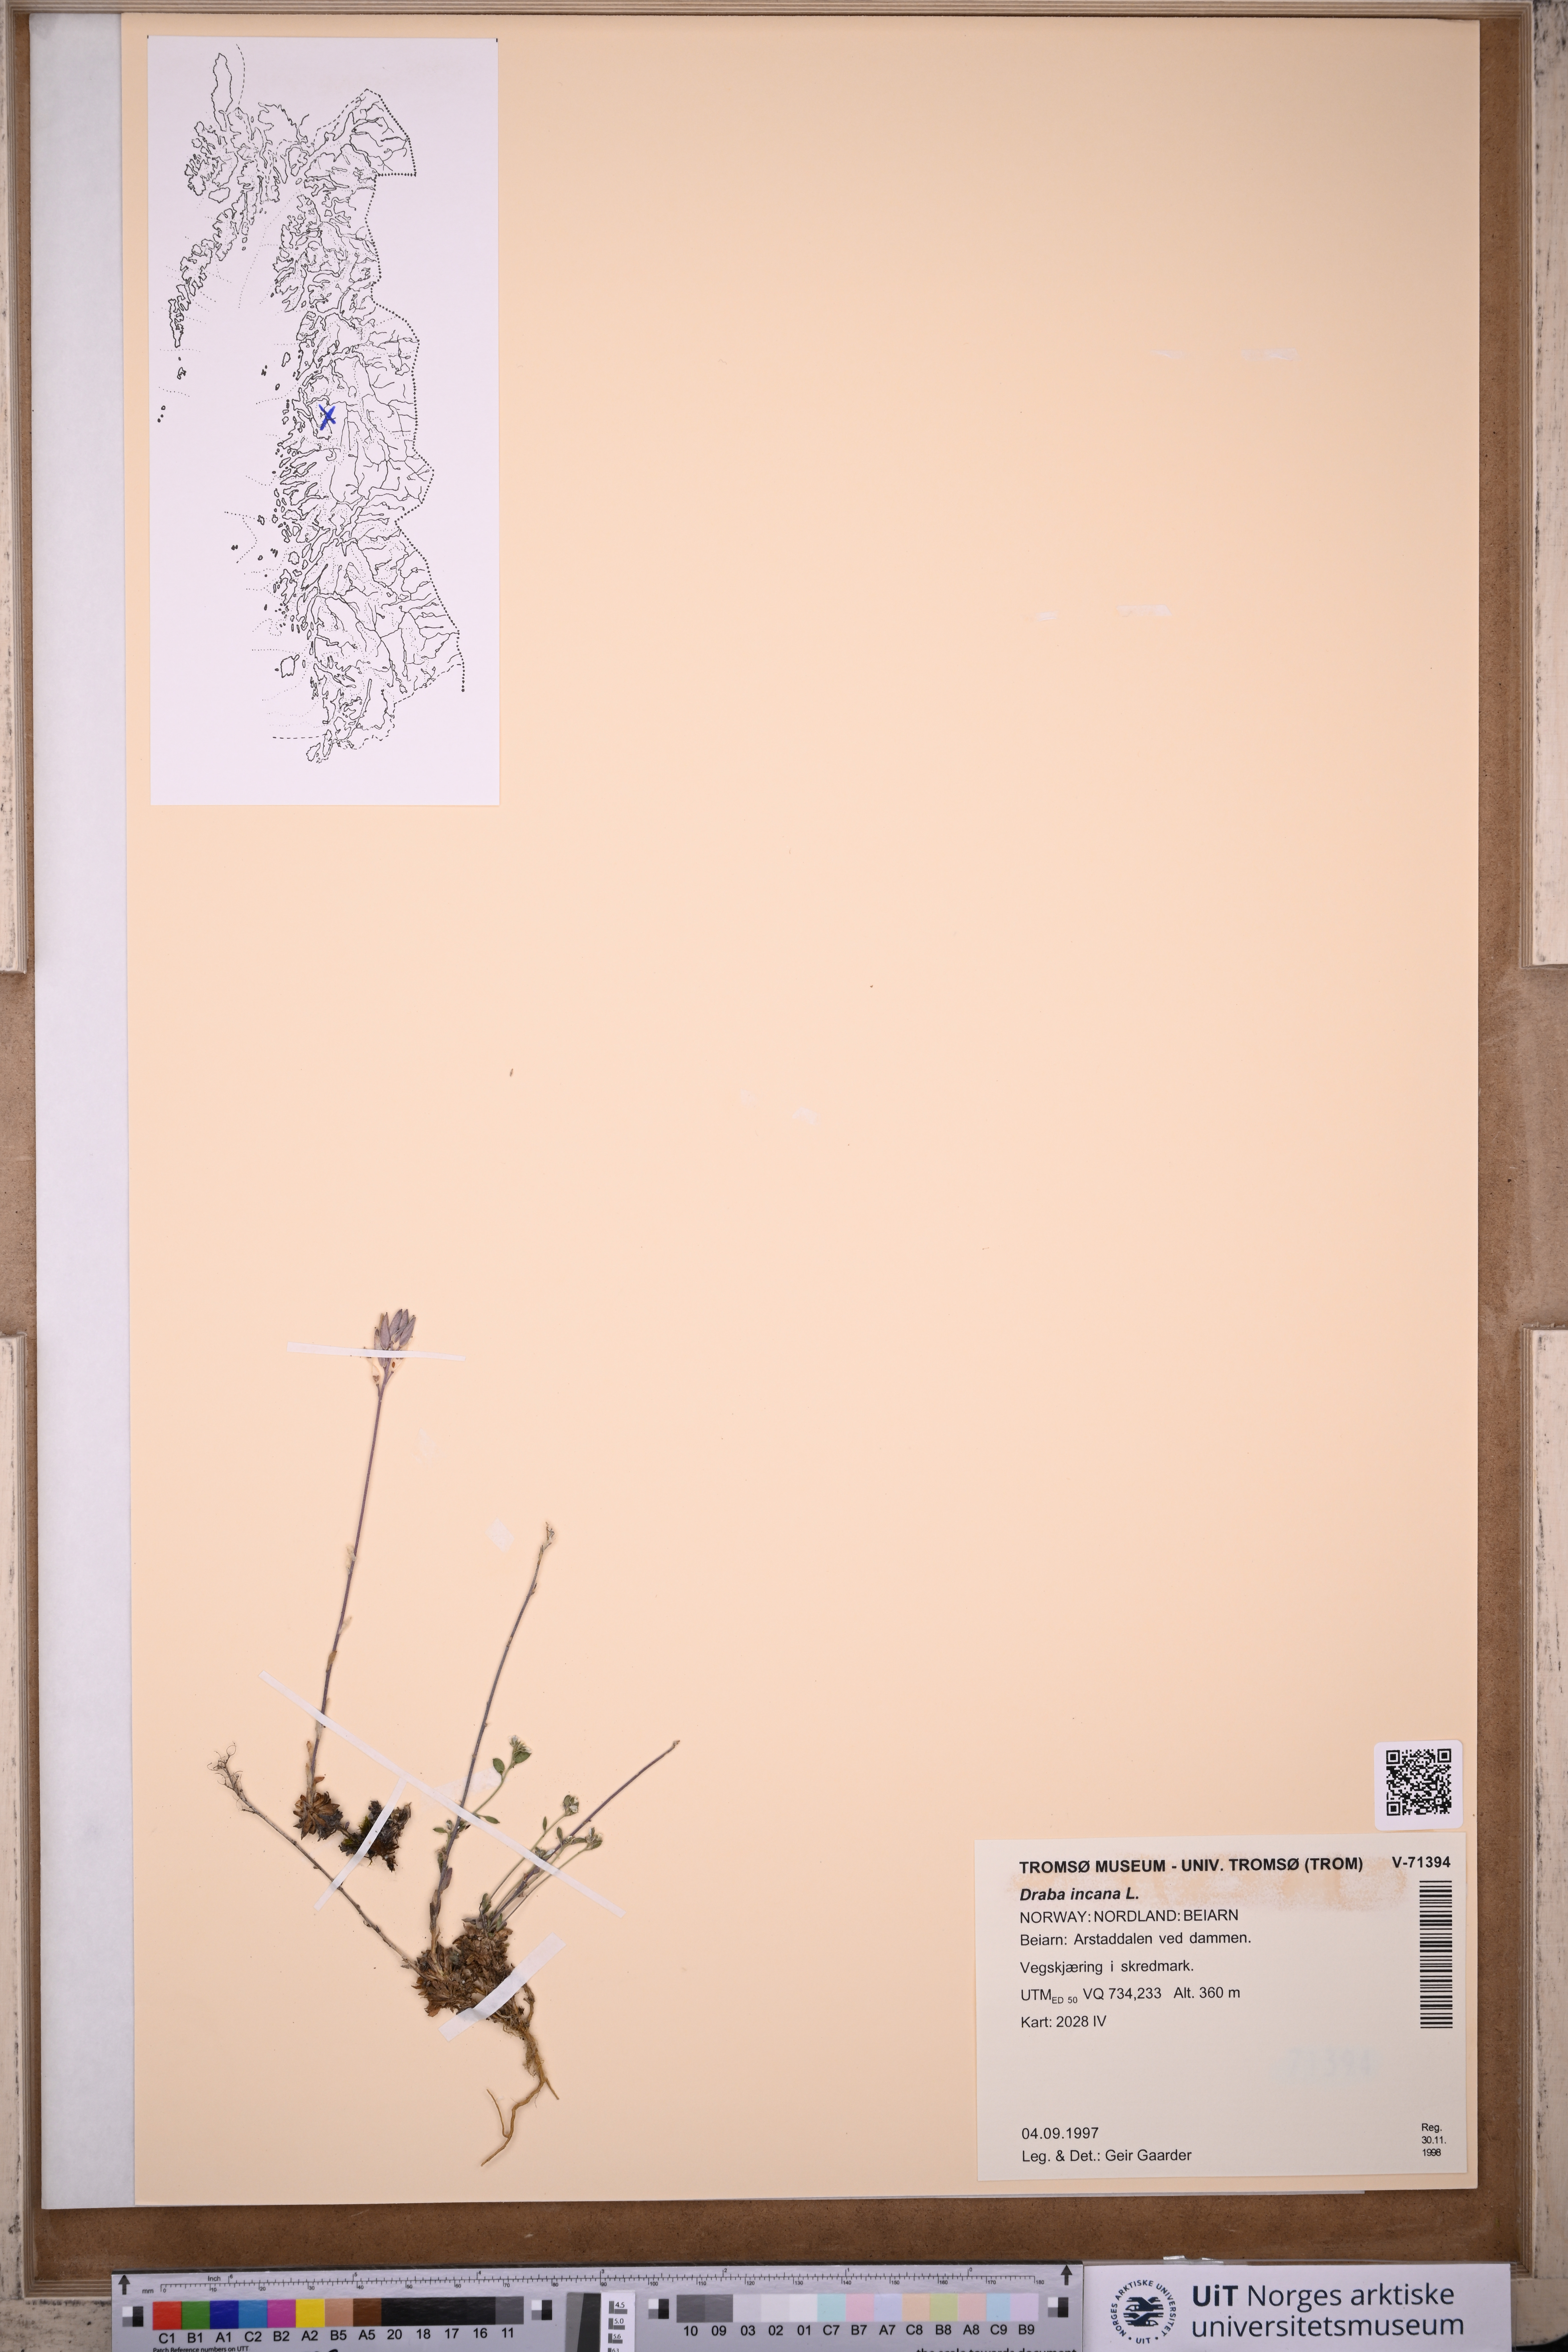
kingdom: Plantae
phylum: Tracheophyta
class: Magnoliopsida
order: Brassicales
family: Brassicaceae
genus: Draba
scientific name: Draba incana
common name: Hoary whitlow-grass
